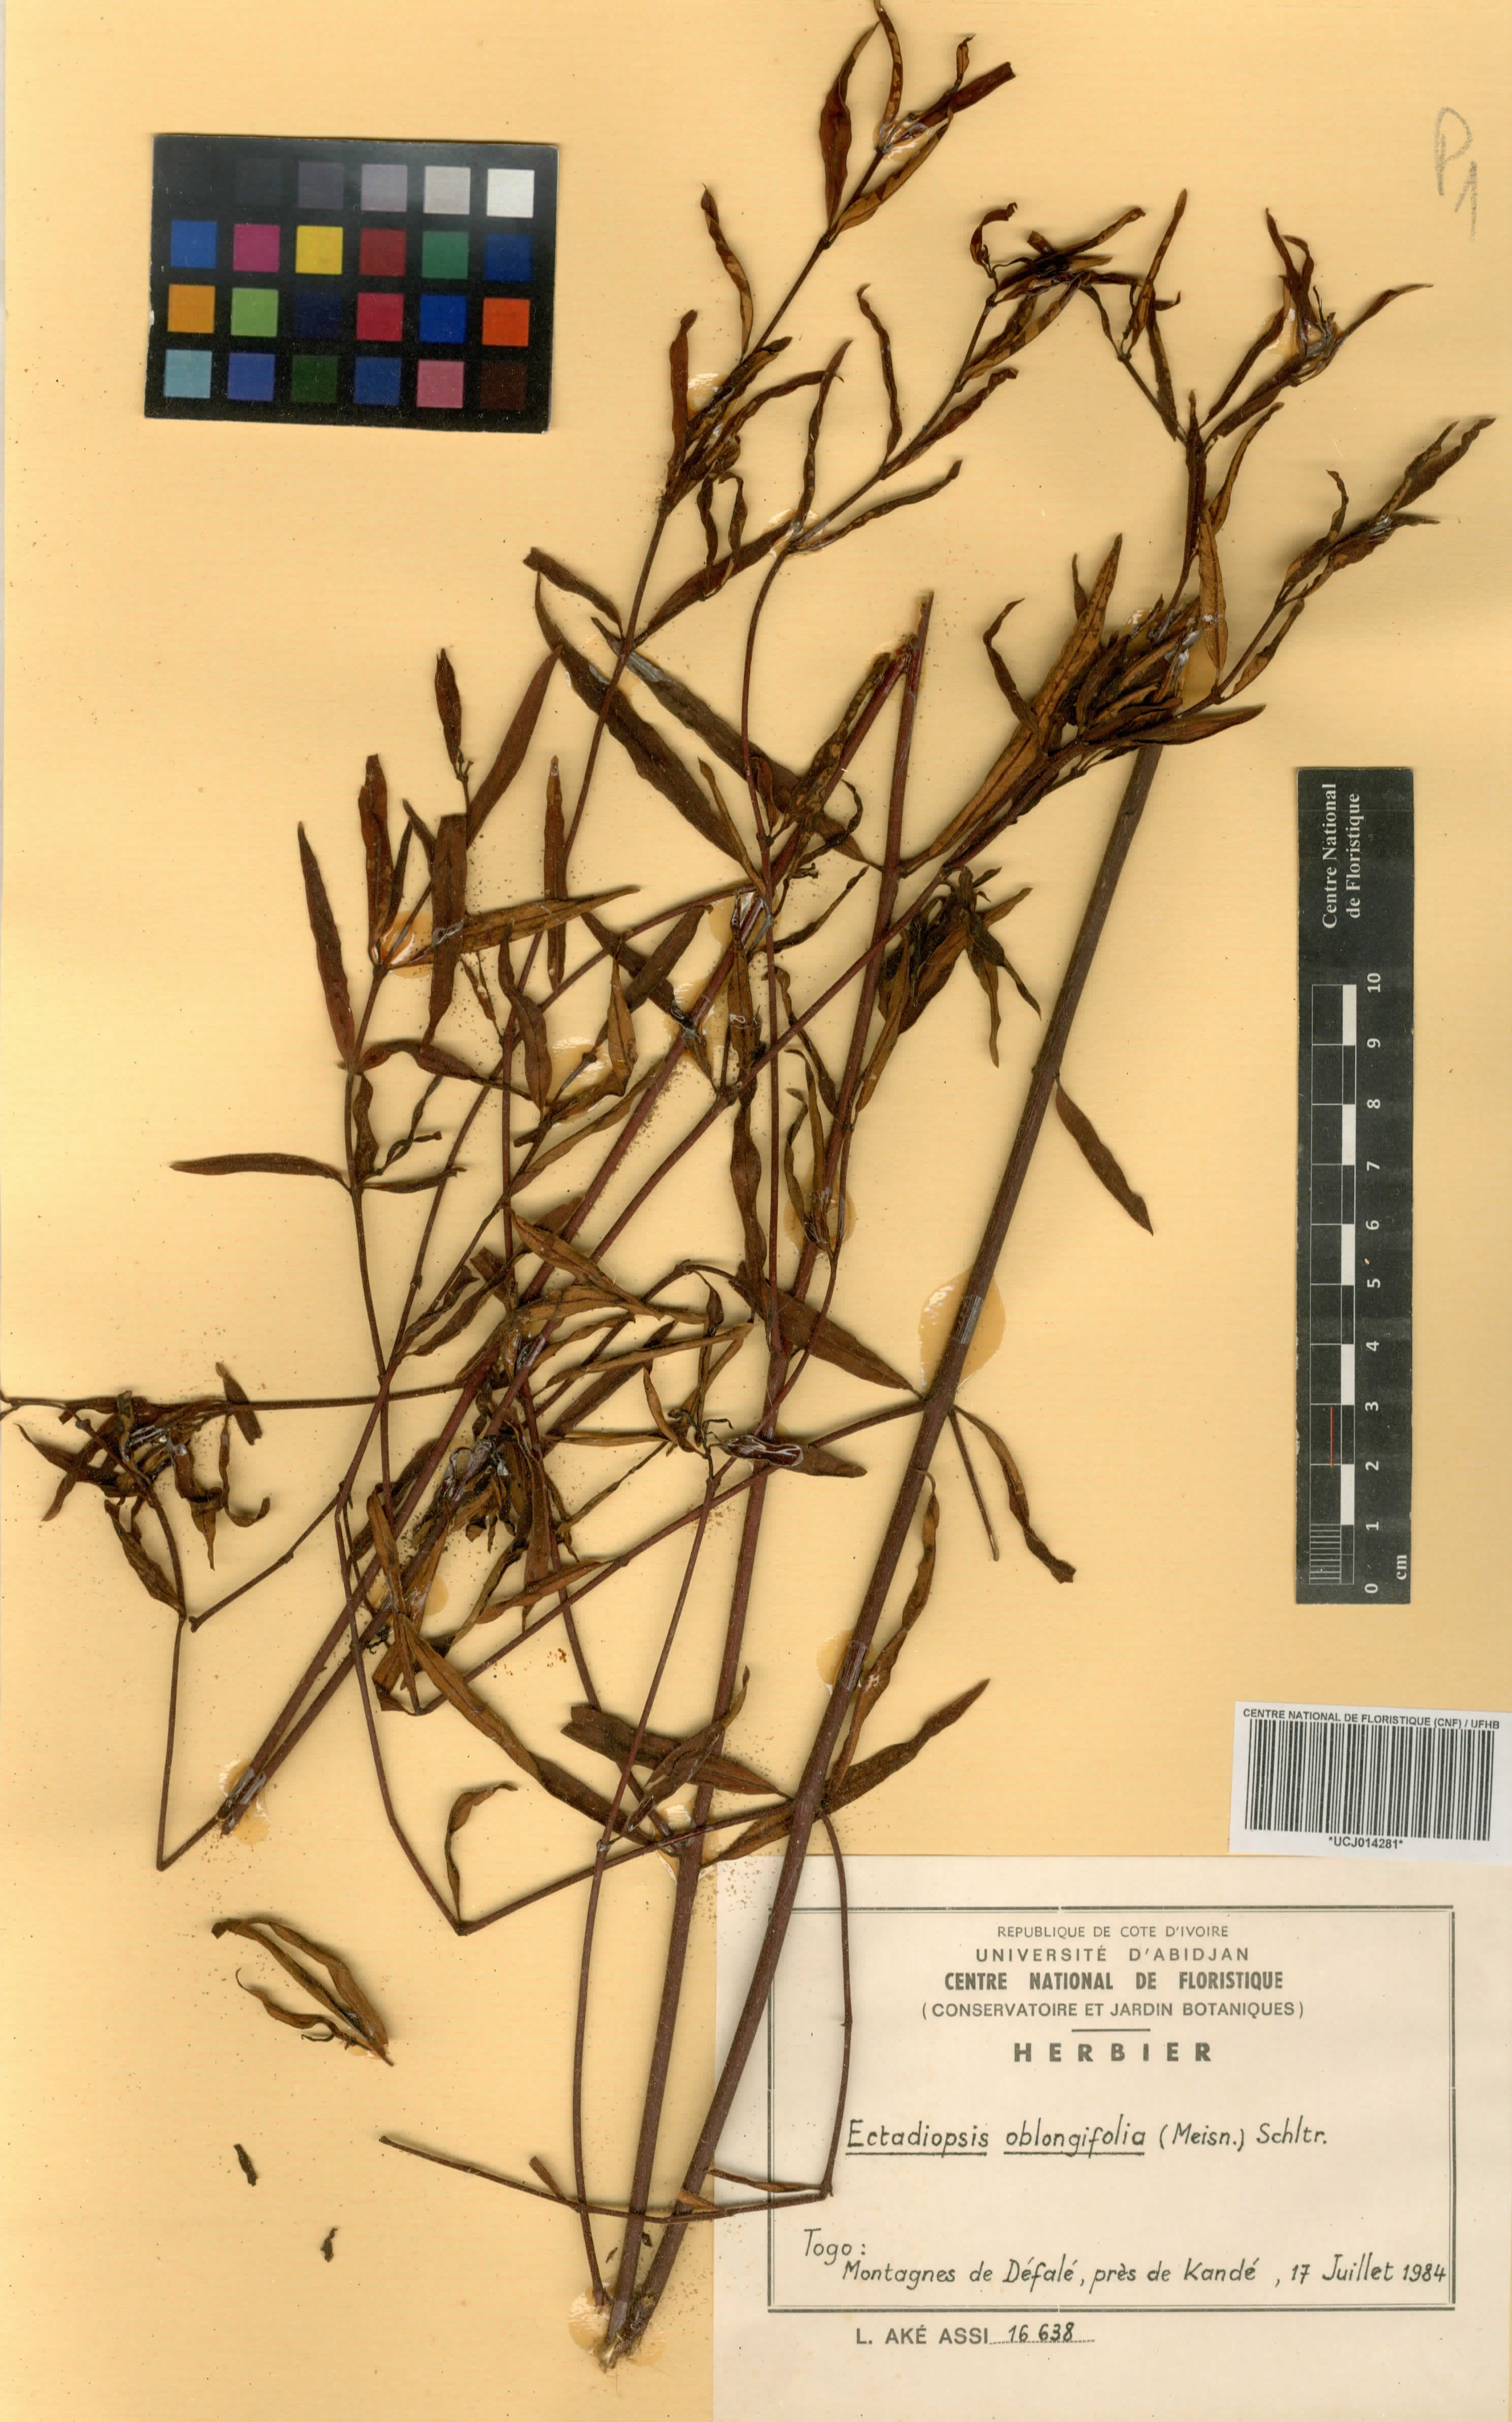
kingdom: Plantae
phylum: Tracheophyta
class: Magnoliopsida
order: Gentianales
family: Apocynaceae
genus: Cryptolepis
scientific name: Cryptolepis oblongifolia
